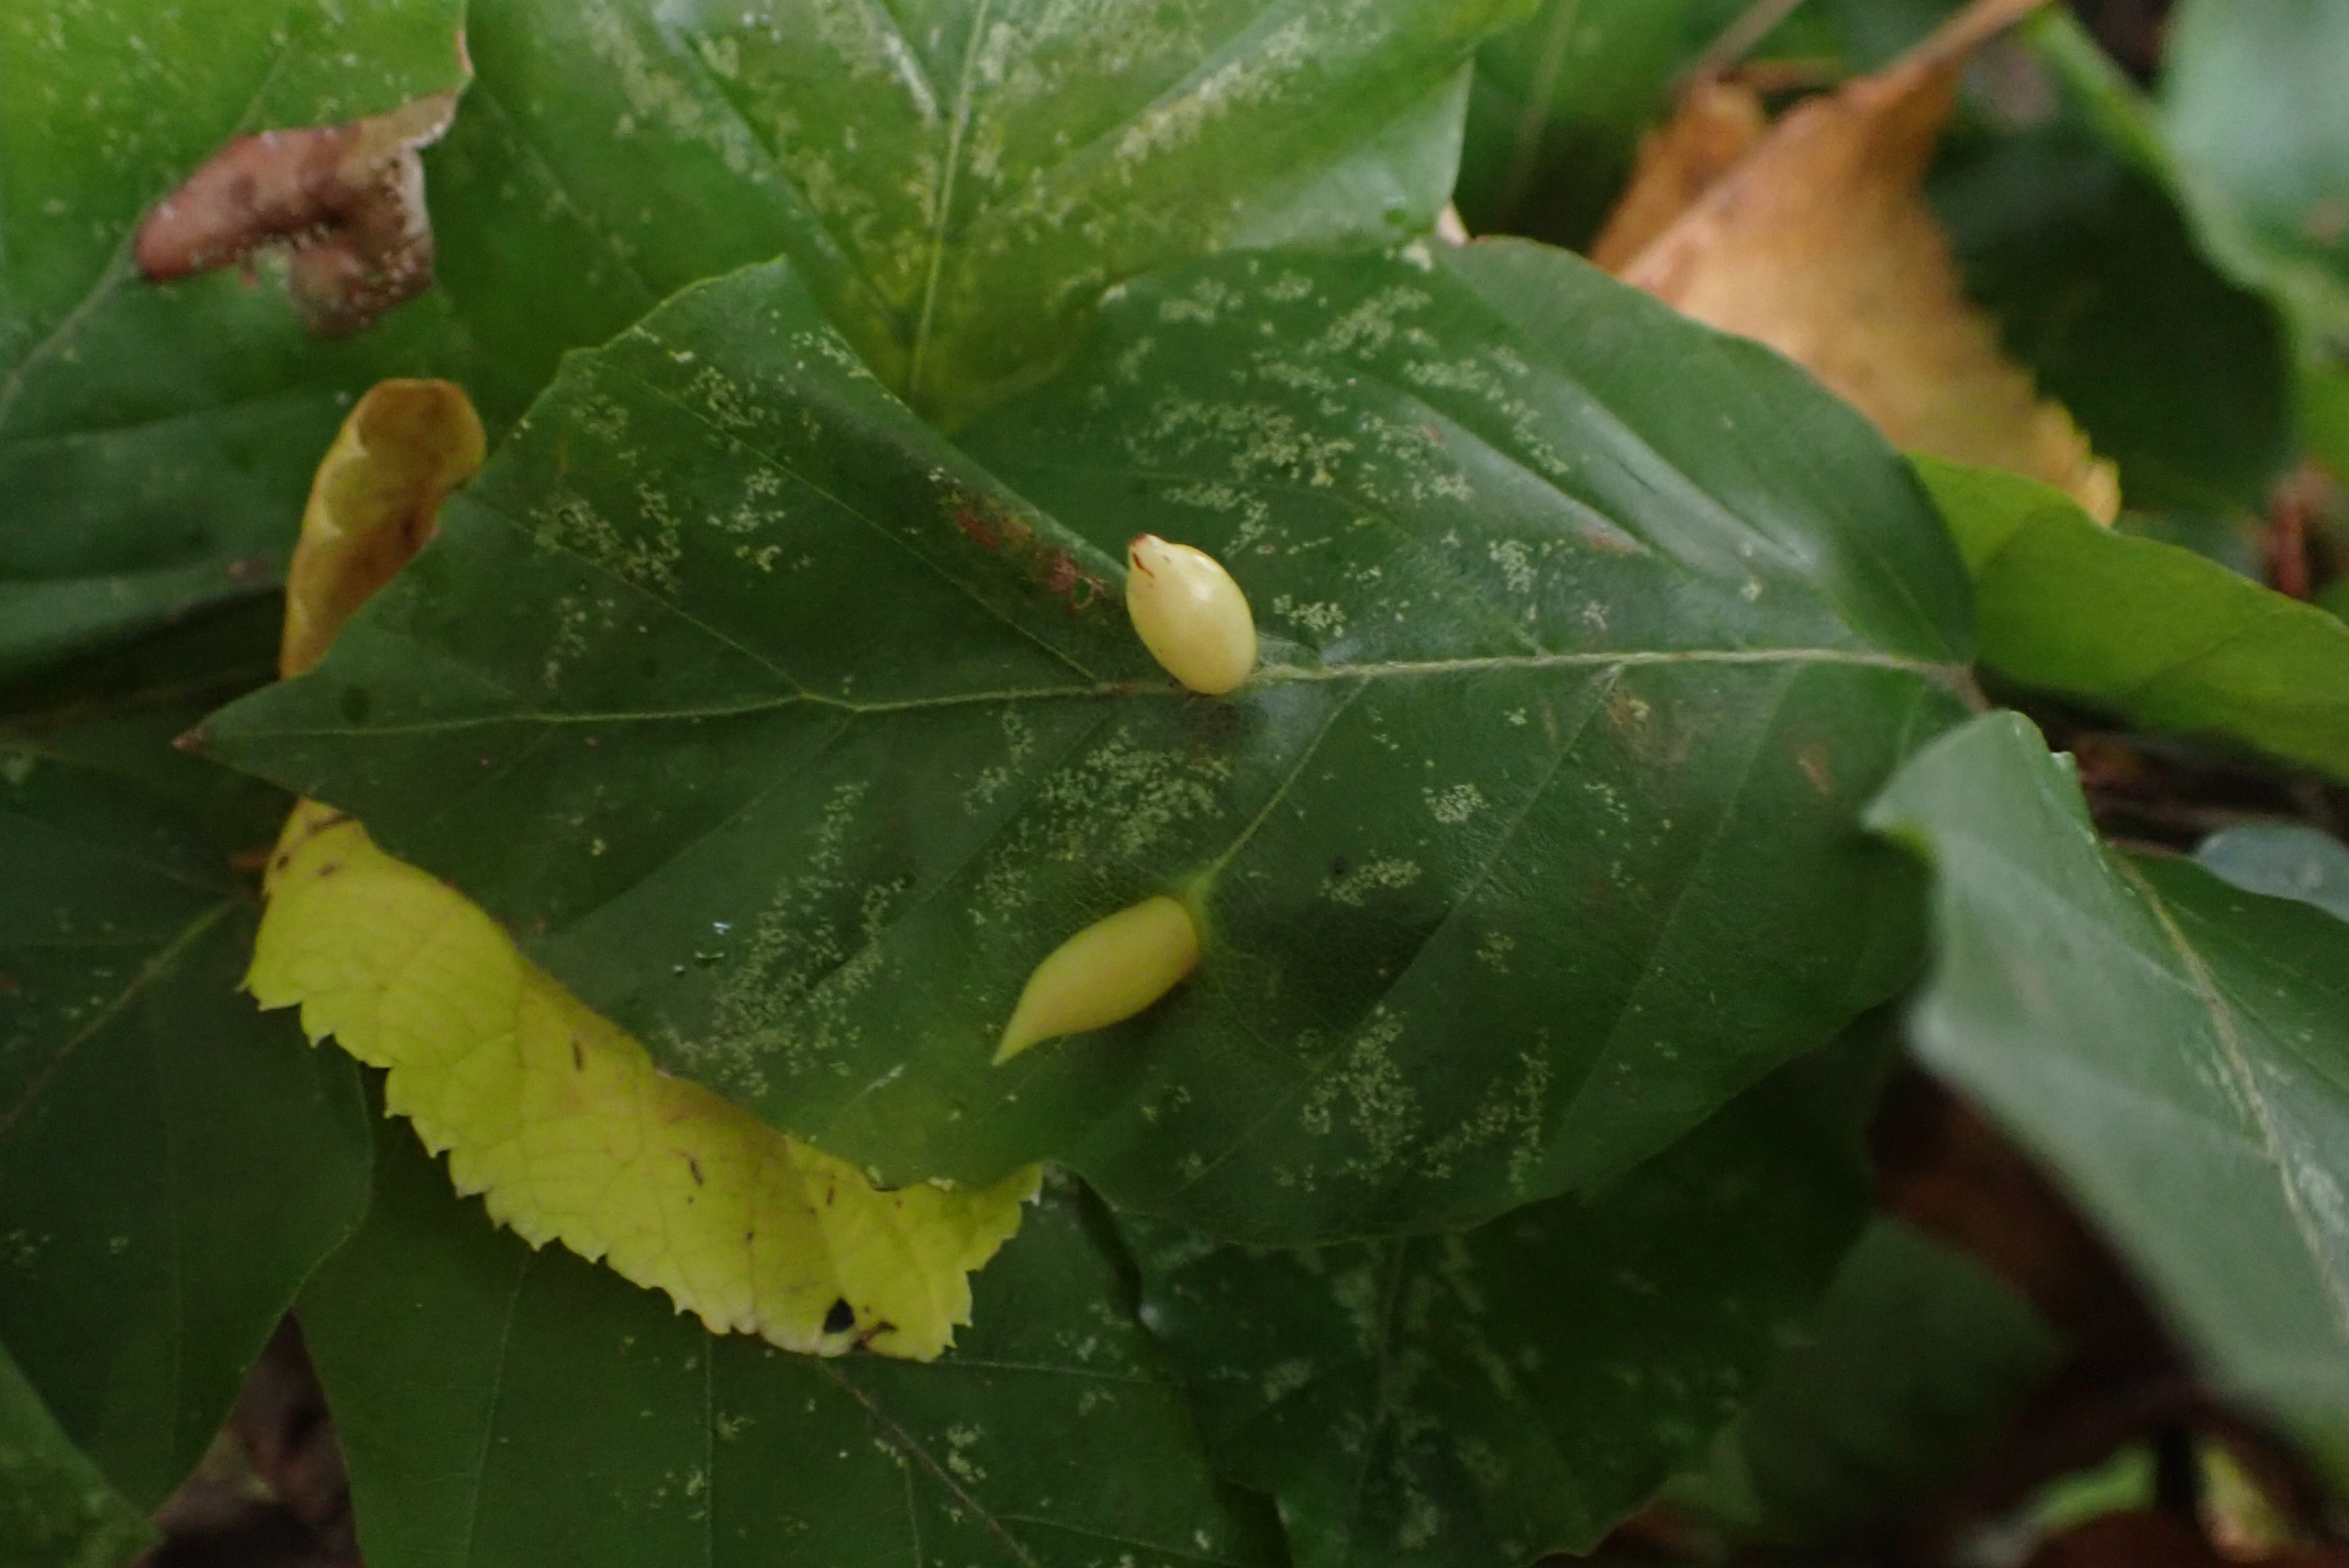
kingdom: Animalia
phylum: Arthropoda
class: Insecta
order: Diptera
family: Cecidomyiidae
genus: Mikiola
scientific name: Mikiola fagi
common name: Bøgegalmyg
